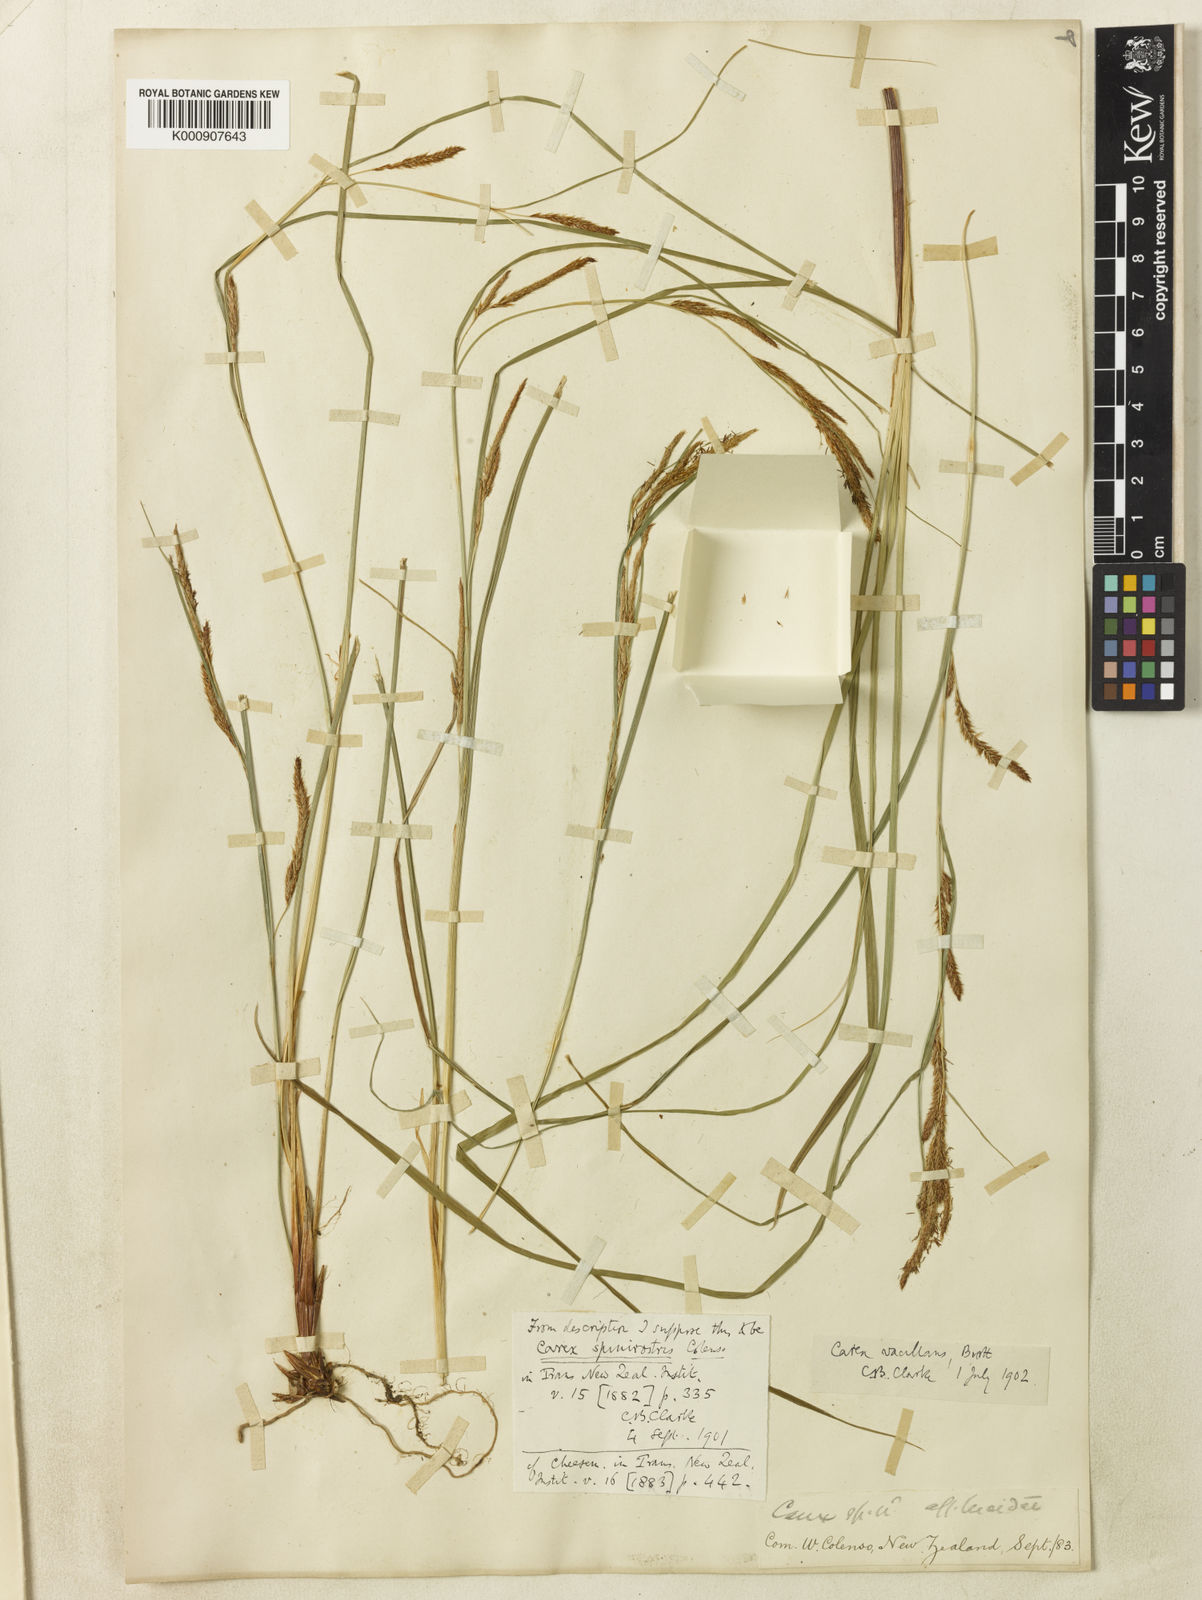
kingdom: Plantae
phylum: Tracheophyta
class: Liliopsida
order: Poales
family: Cyperaceae
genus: Carex
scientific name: Carex spinirostris
